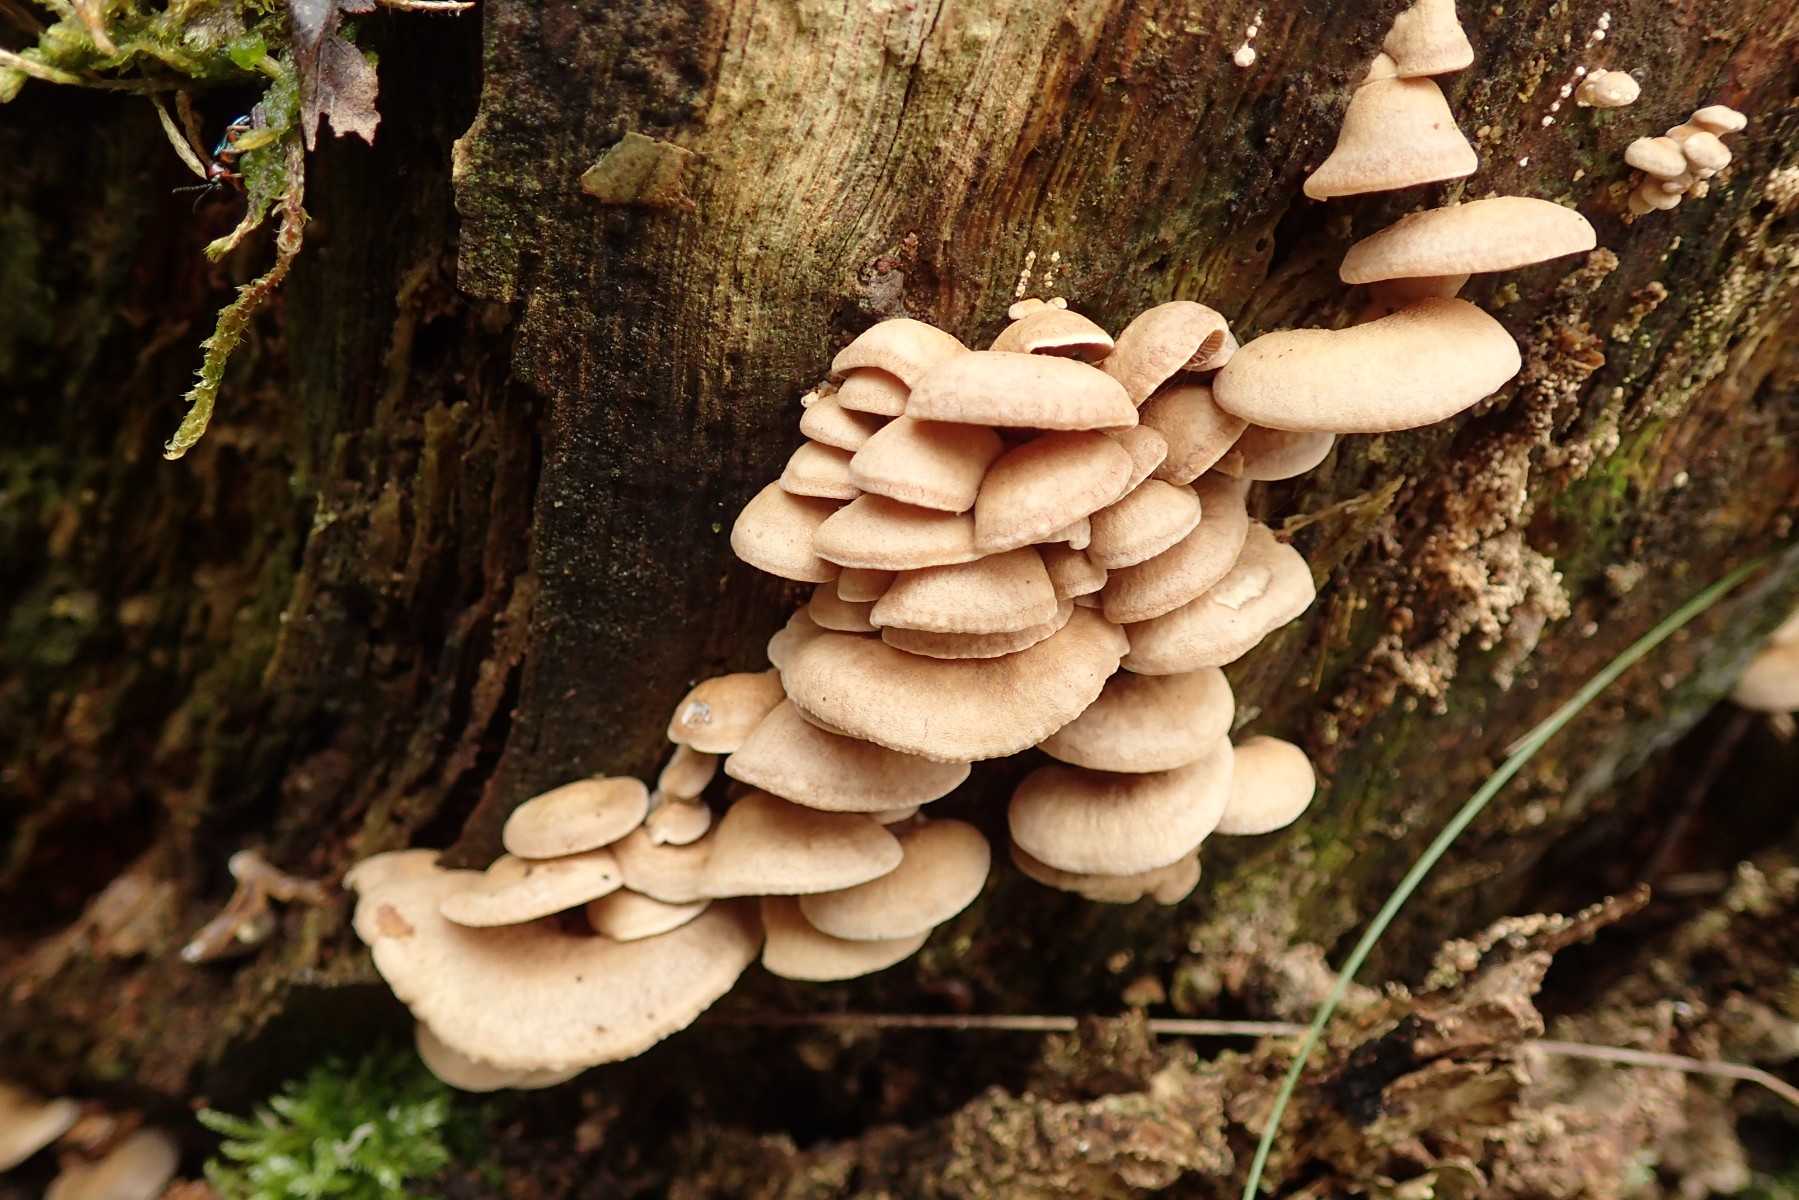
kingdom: Fungi
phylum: Basidiomycota
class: Agaricomycetes
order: Agaricales
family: Mycenaceae
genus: Panellus
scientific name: Panellus stipticus
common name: kliddet epaulethat
